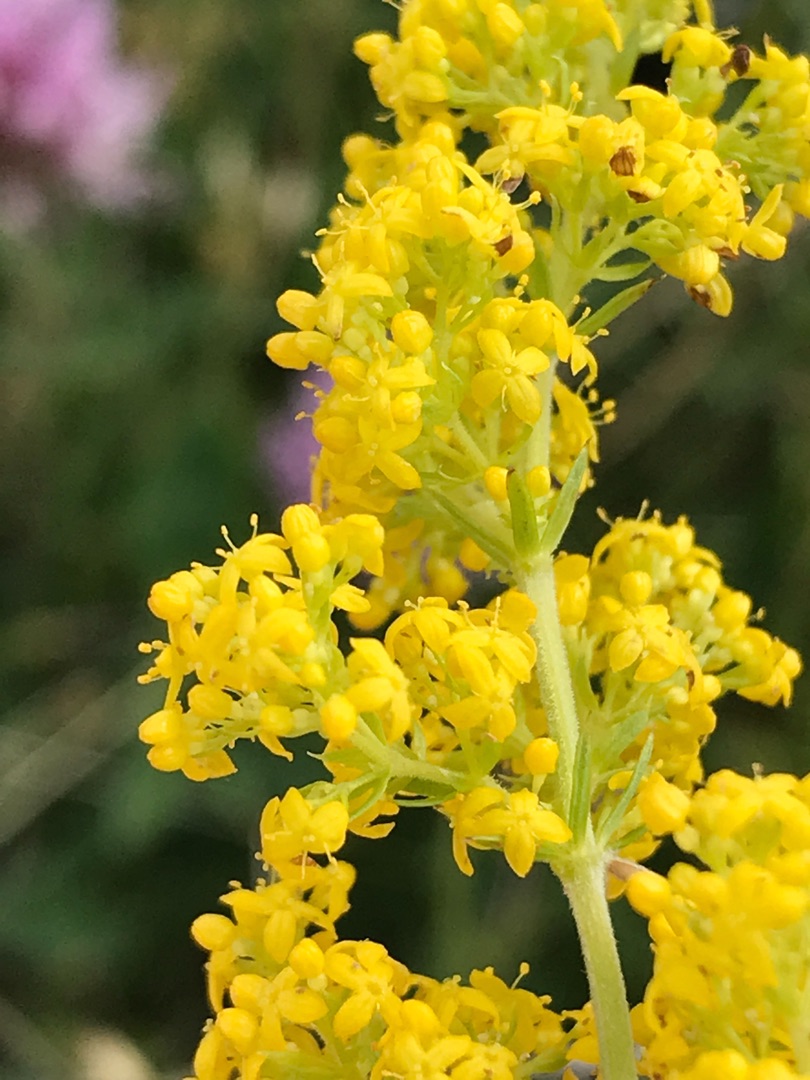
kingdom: Plantae
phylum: Tracheophyta
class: Magnoliopsida
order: Gentianales
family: Rubiaceae
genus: Galium
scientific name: Galium verum
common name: Gul snerre
